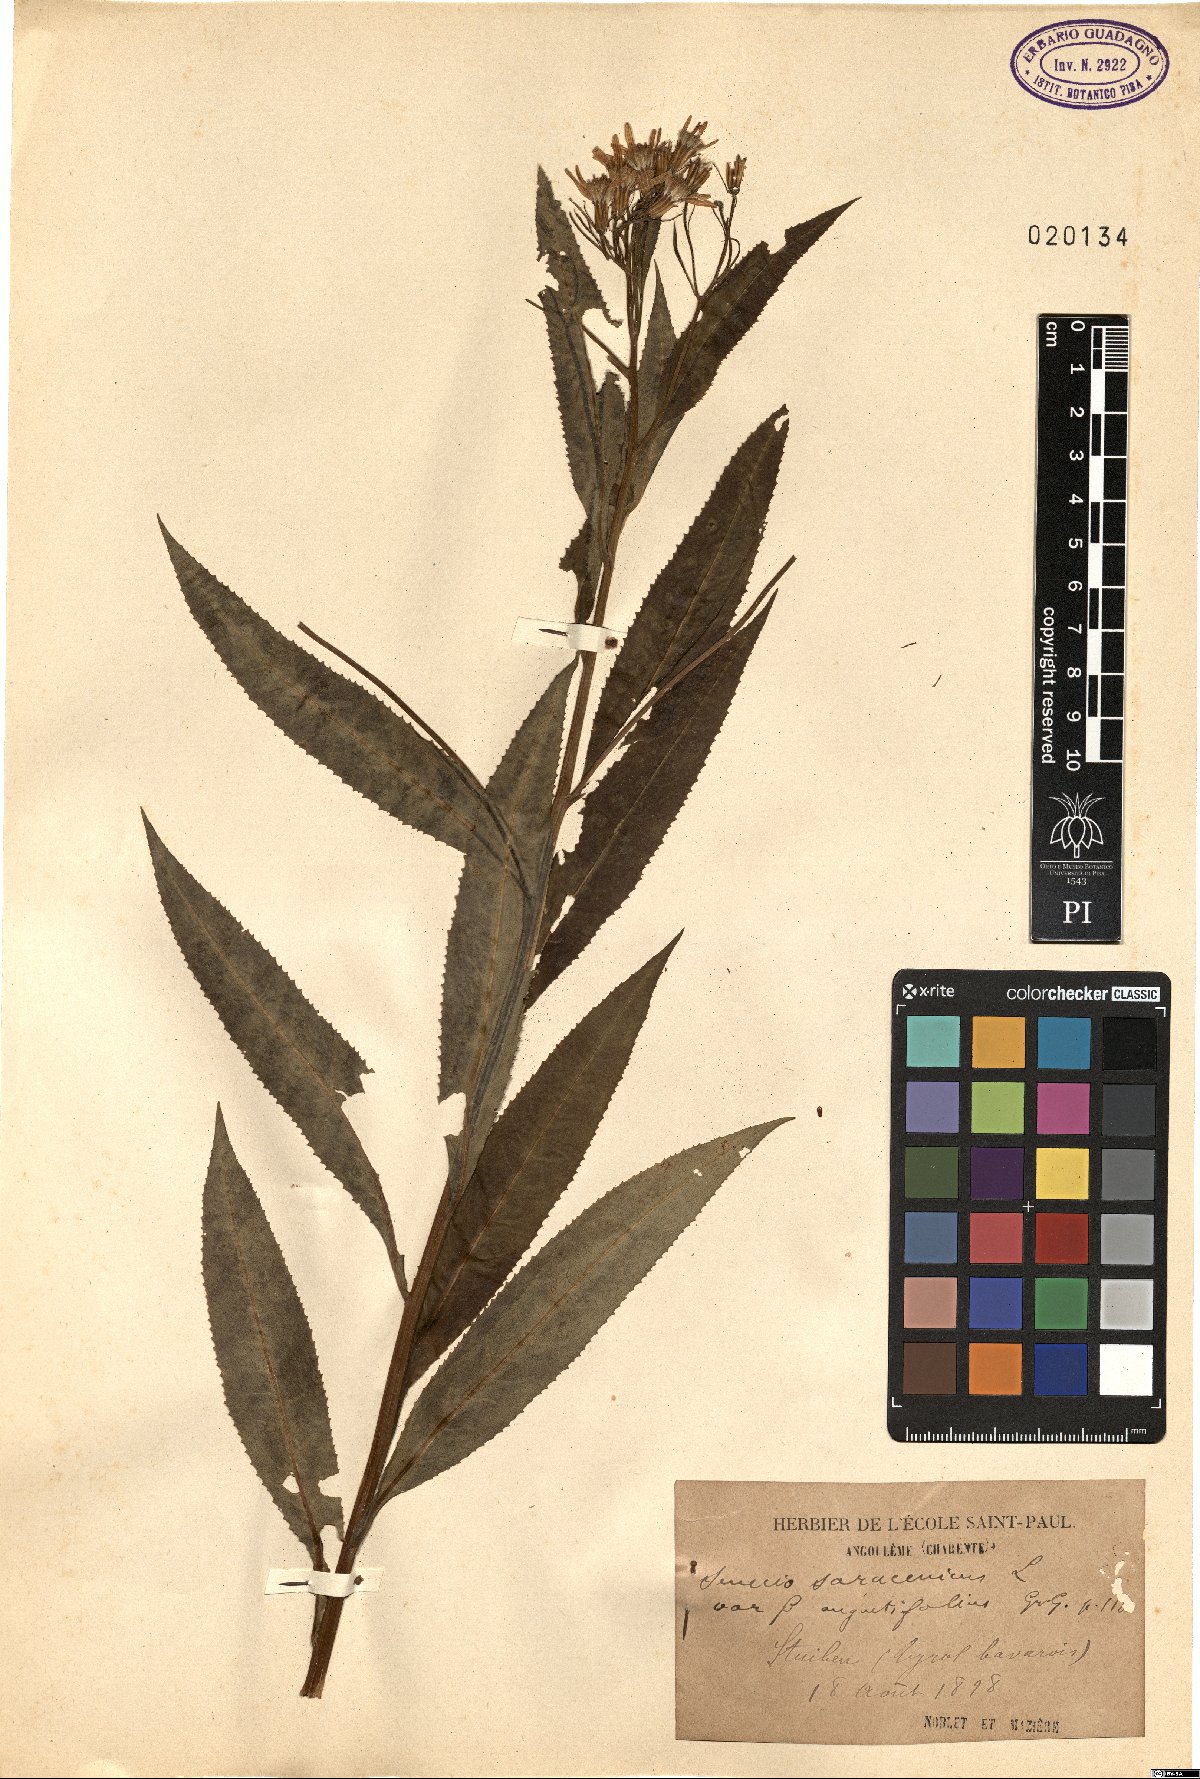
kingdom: Plantae
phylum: Tracheophyta
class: Magnoliopsida
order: Asterales
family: Asteraceae
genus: Senecio
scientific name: Senecio saracenicus
